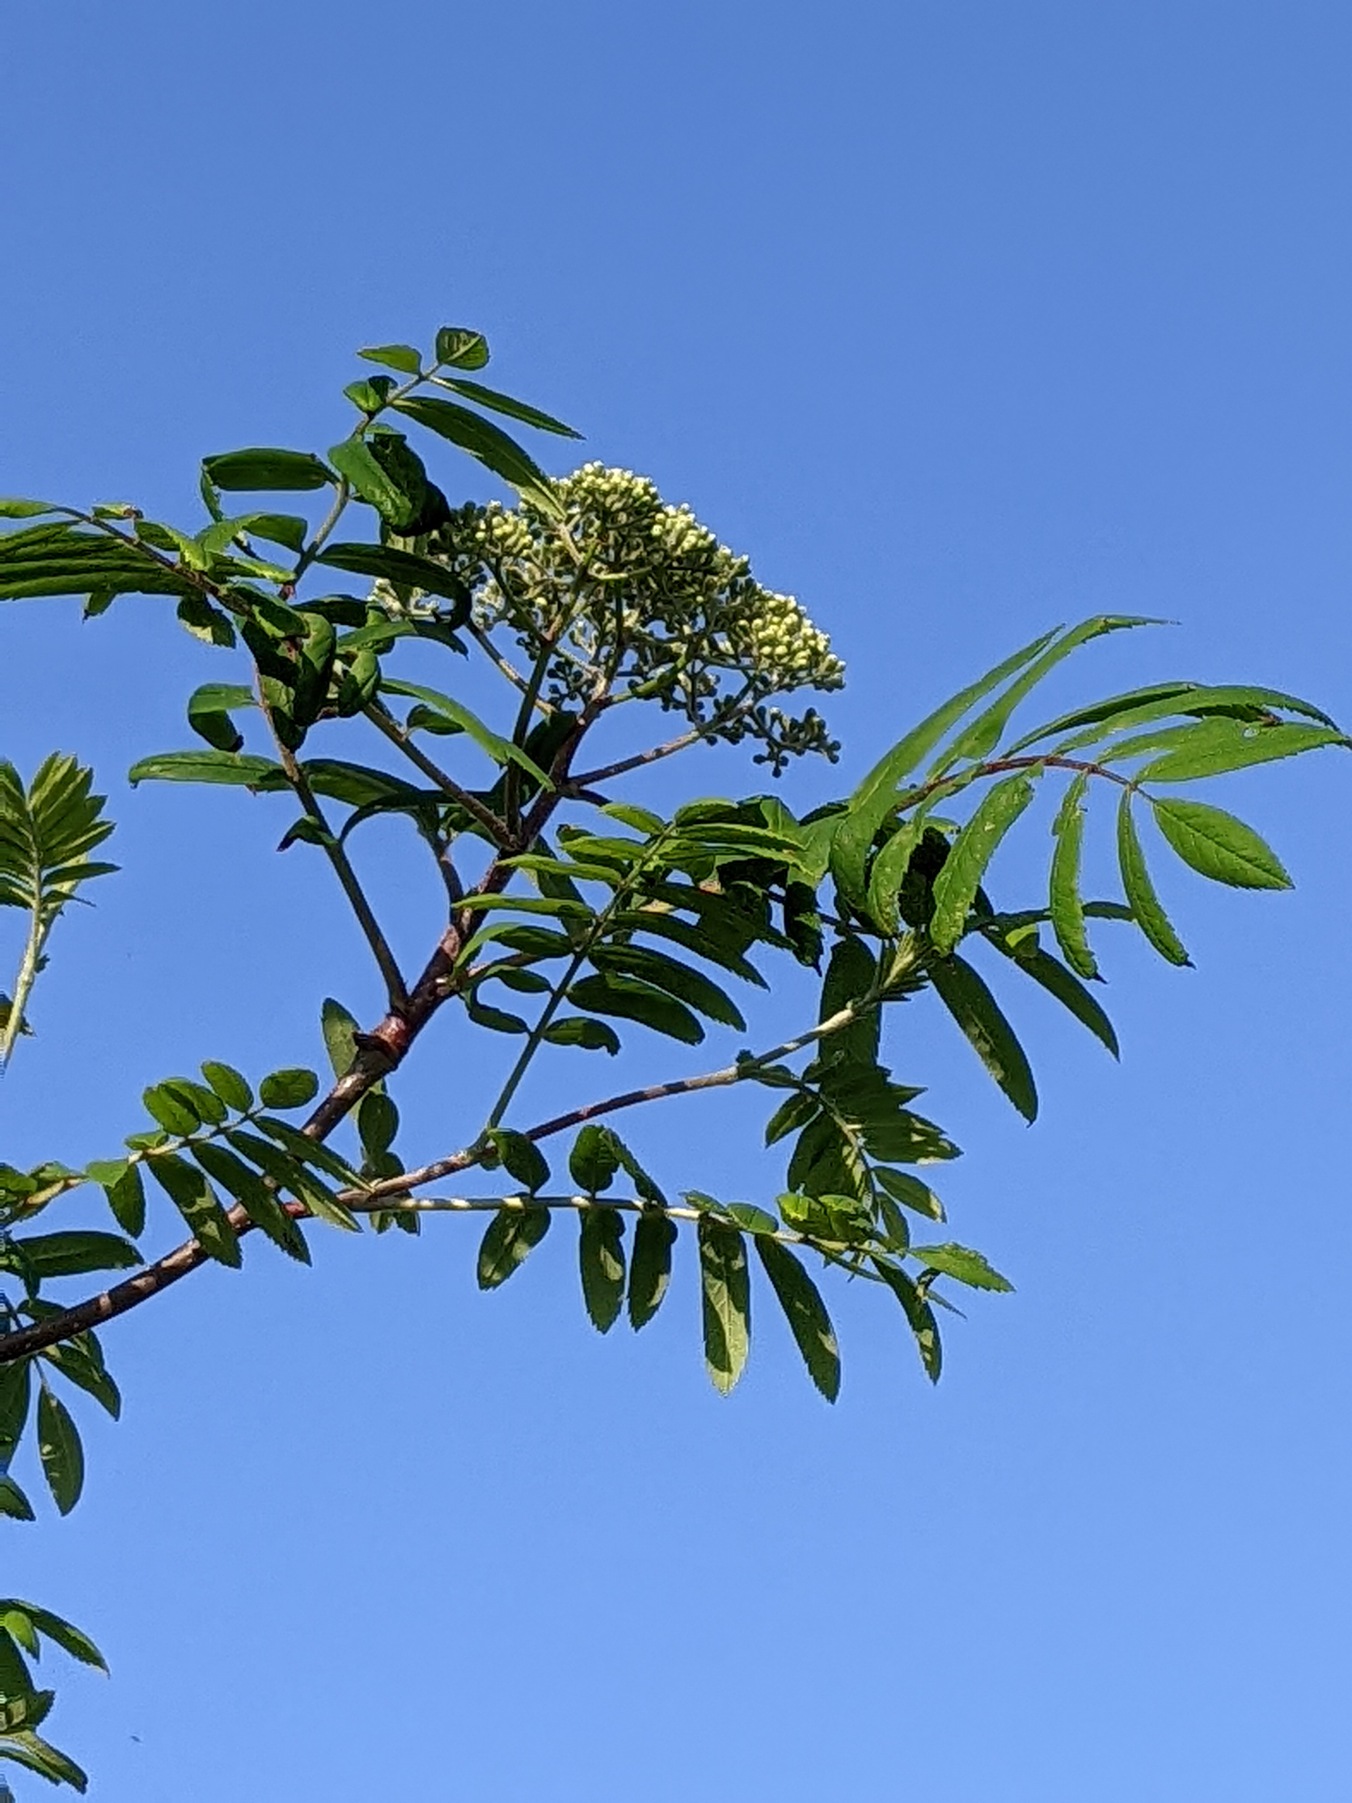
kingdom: Plantae
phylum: Tracheophyta
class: Magnoliopsida
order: Rosales
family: Rosaceae
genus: Sorbus
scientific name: Sorbus aucuparia
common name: Almindelig røn
